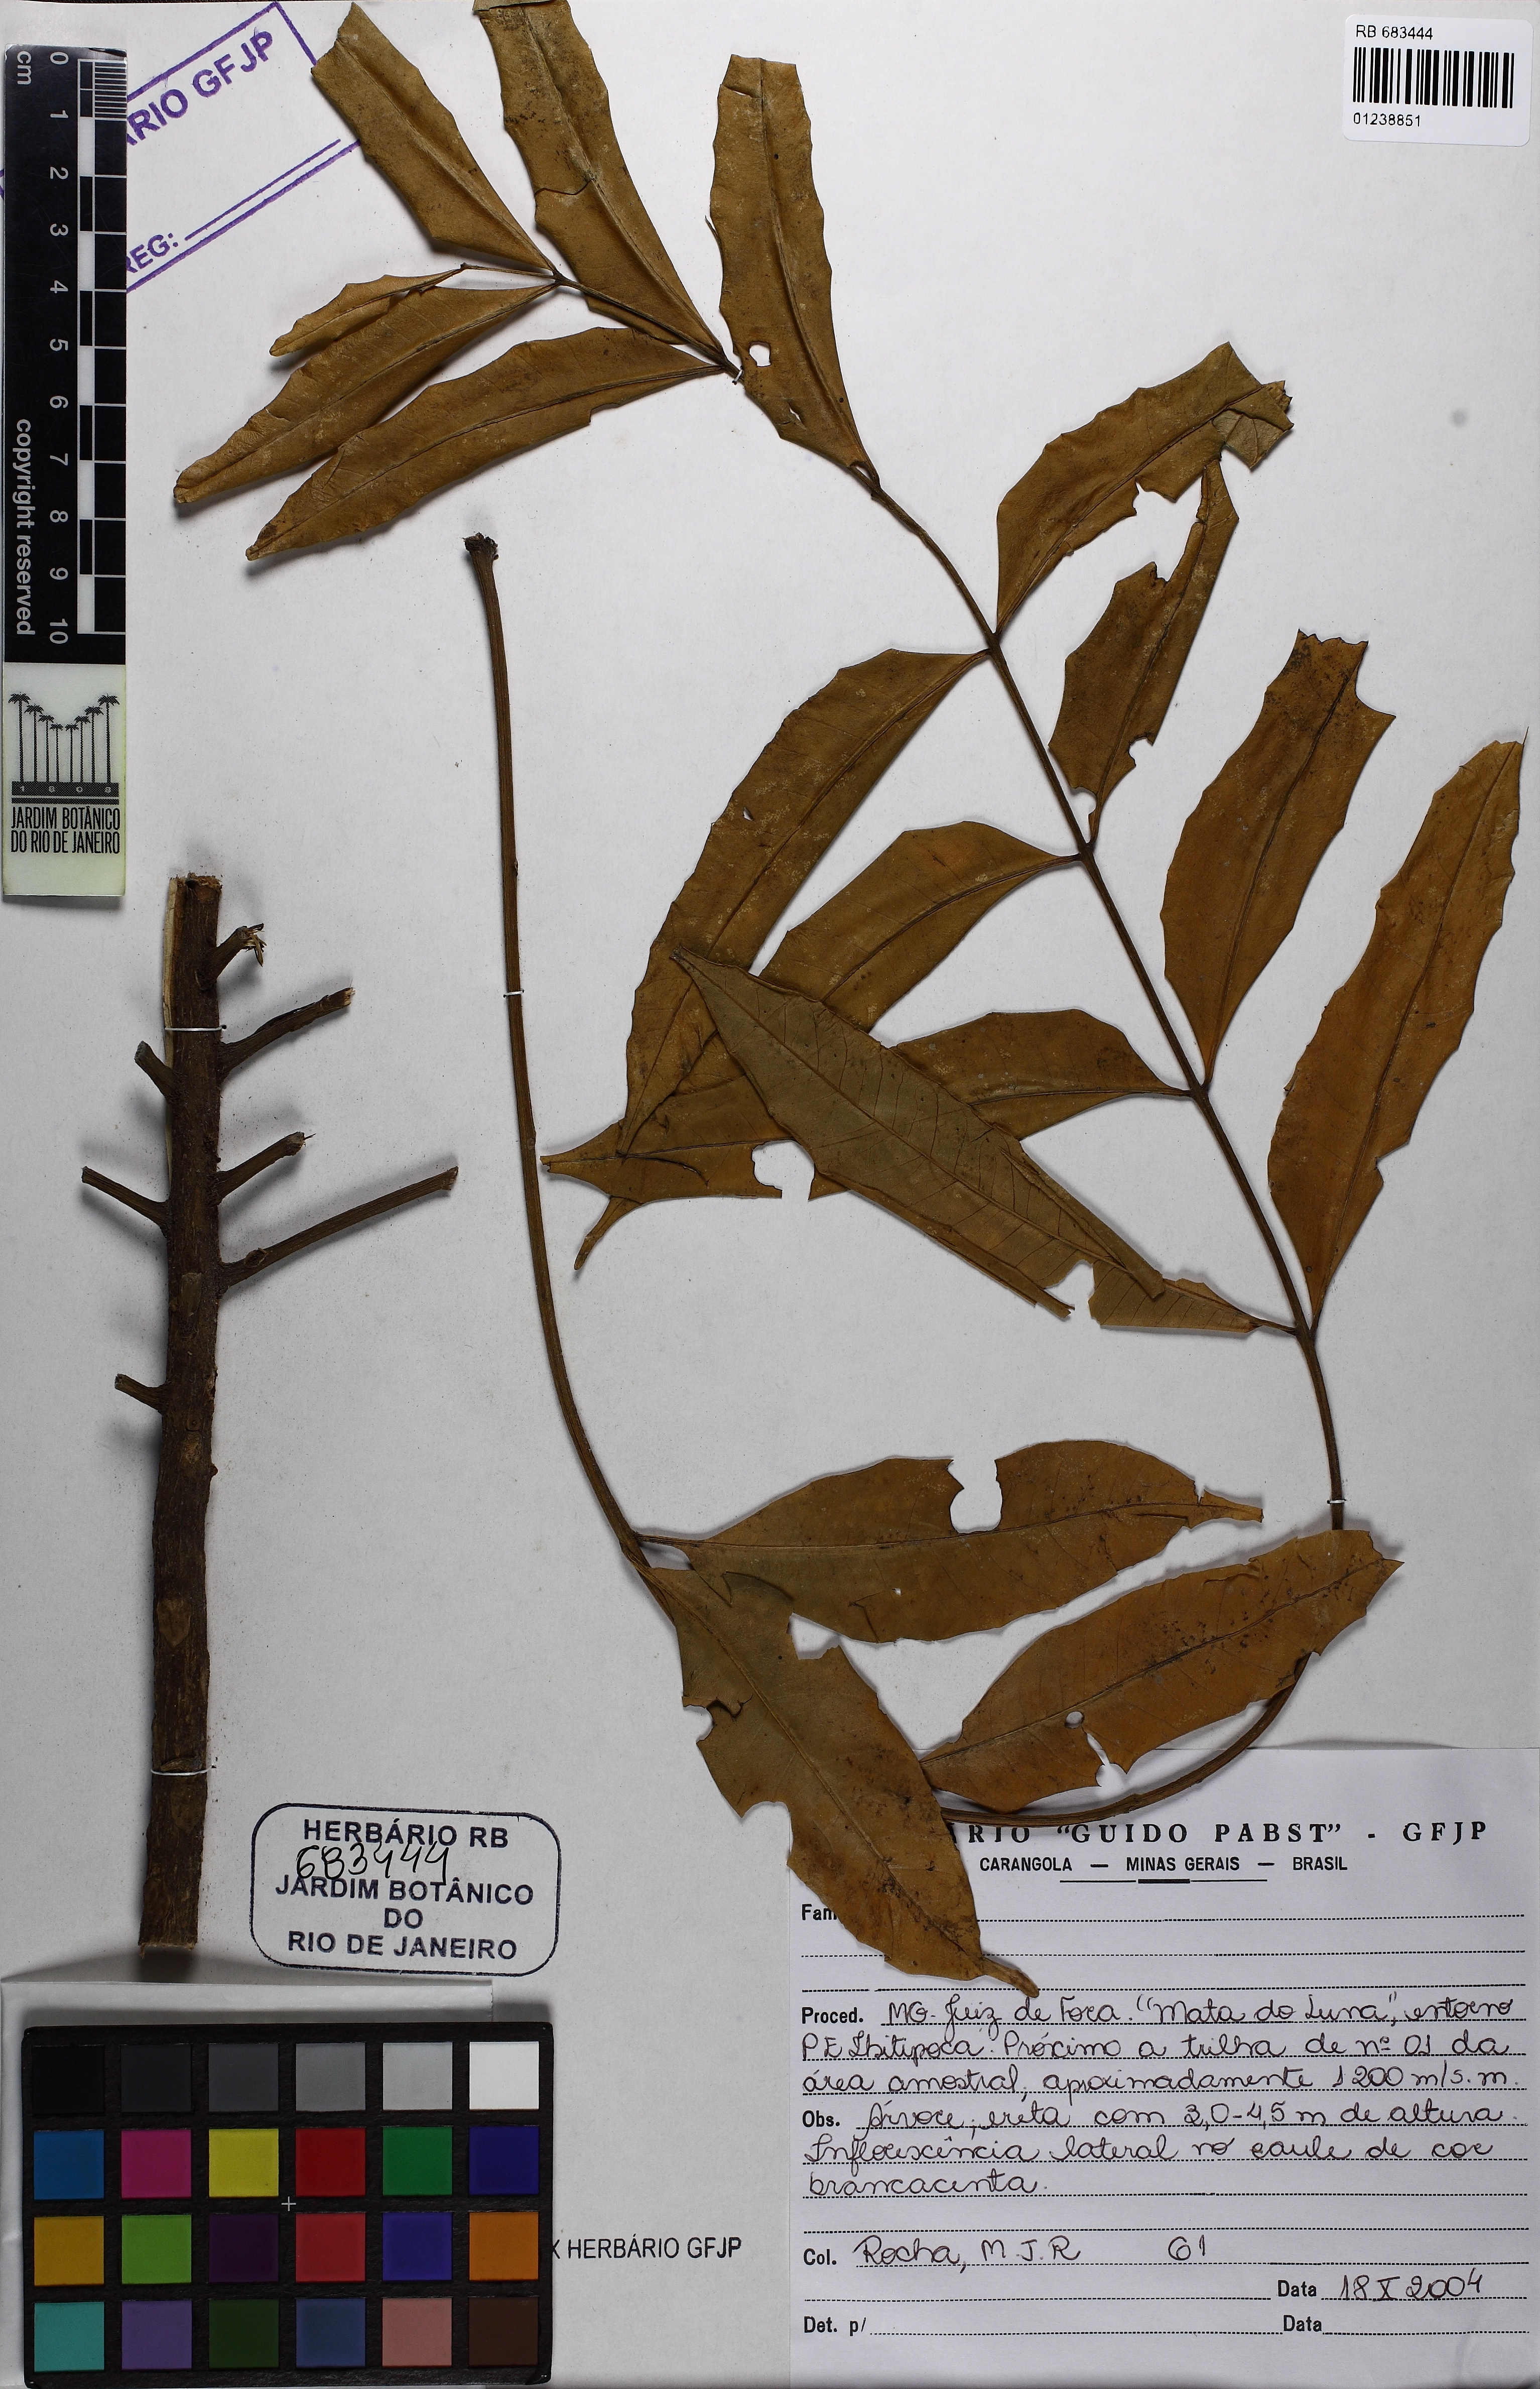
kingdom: Plantae
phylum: Tracheophyta
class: Magnoliopsida
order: Sapindales
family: Meliaceae
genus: Cabralea
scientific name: Cabralea canjerana
